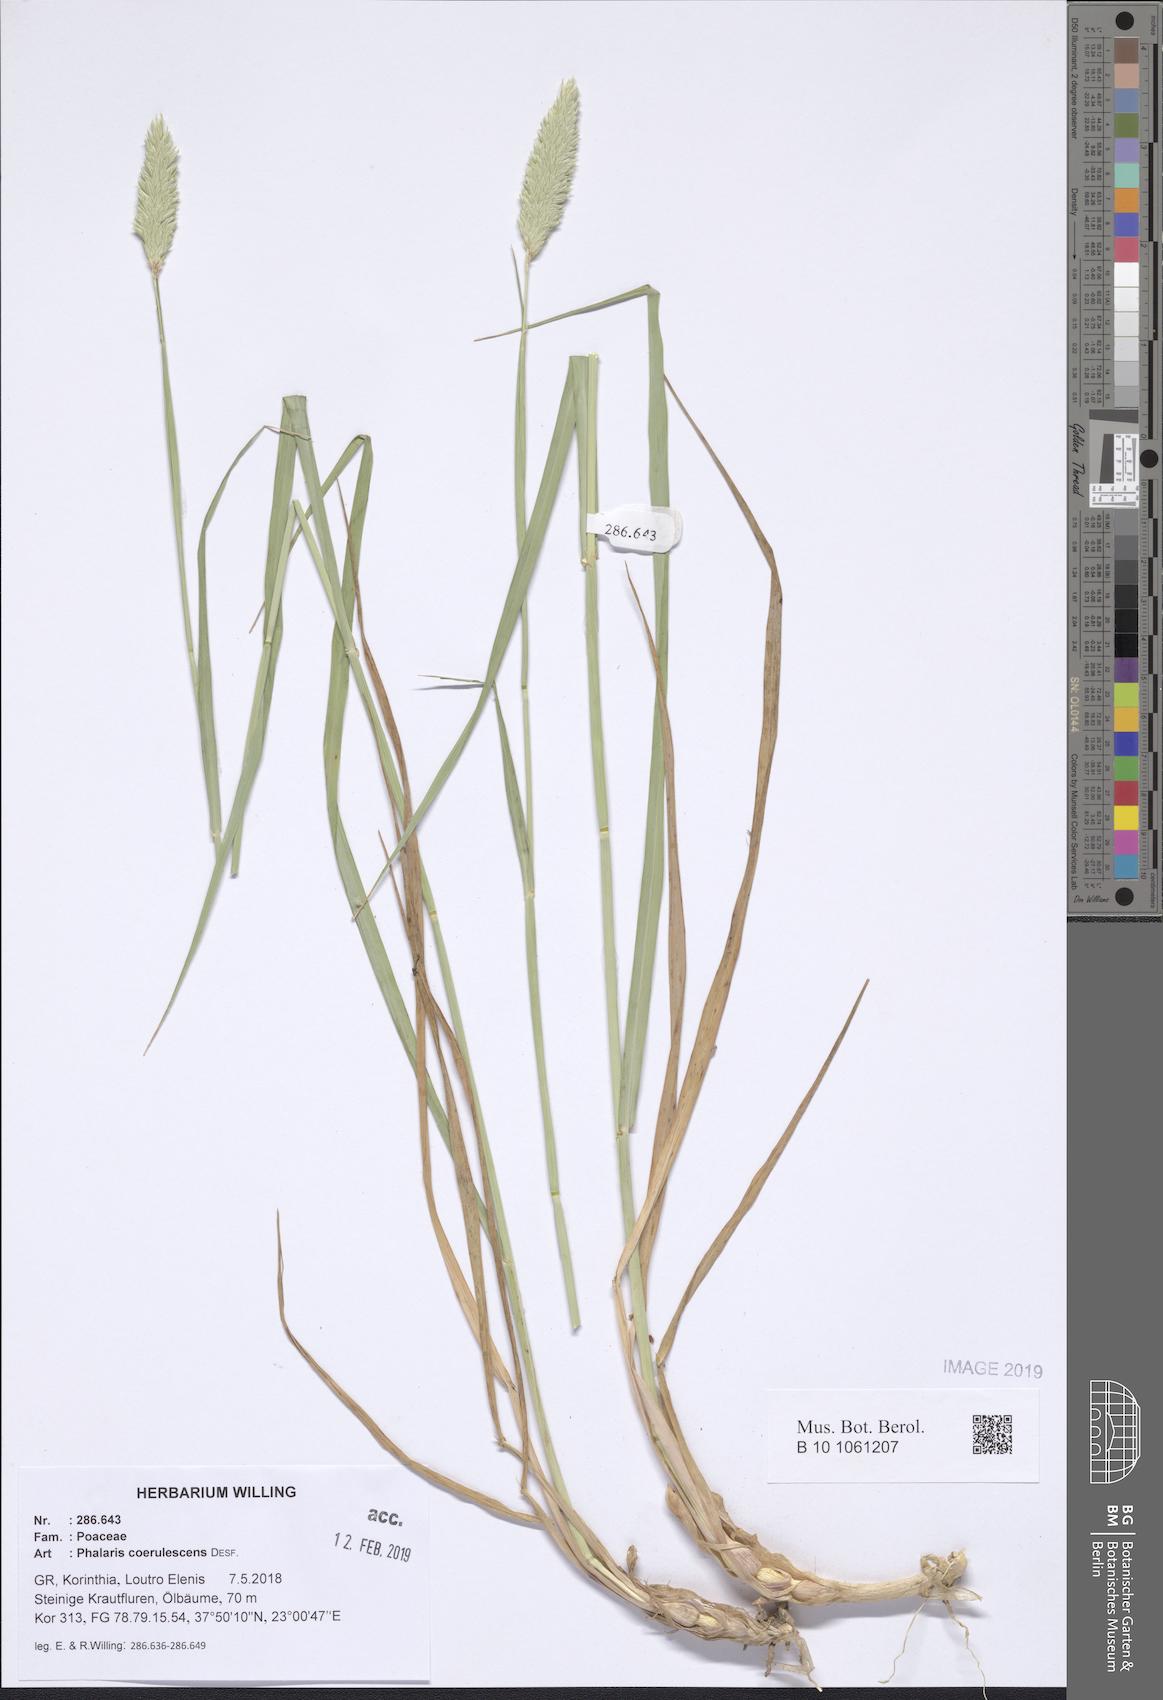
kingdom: Plantae
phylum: Tracheophyta
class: Liliopsida
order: Poales
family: Poaceae
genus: Phalaris
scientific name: Phalaris coerulescens
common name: Sunolgrass
